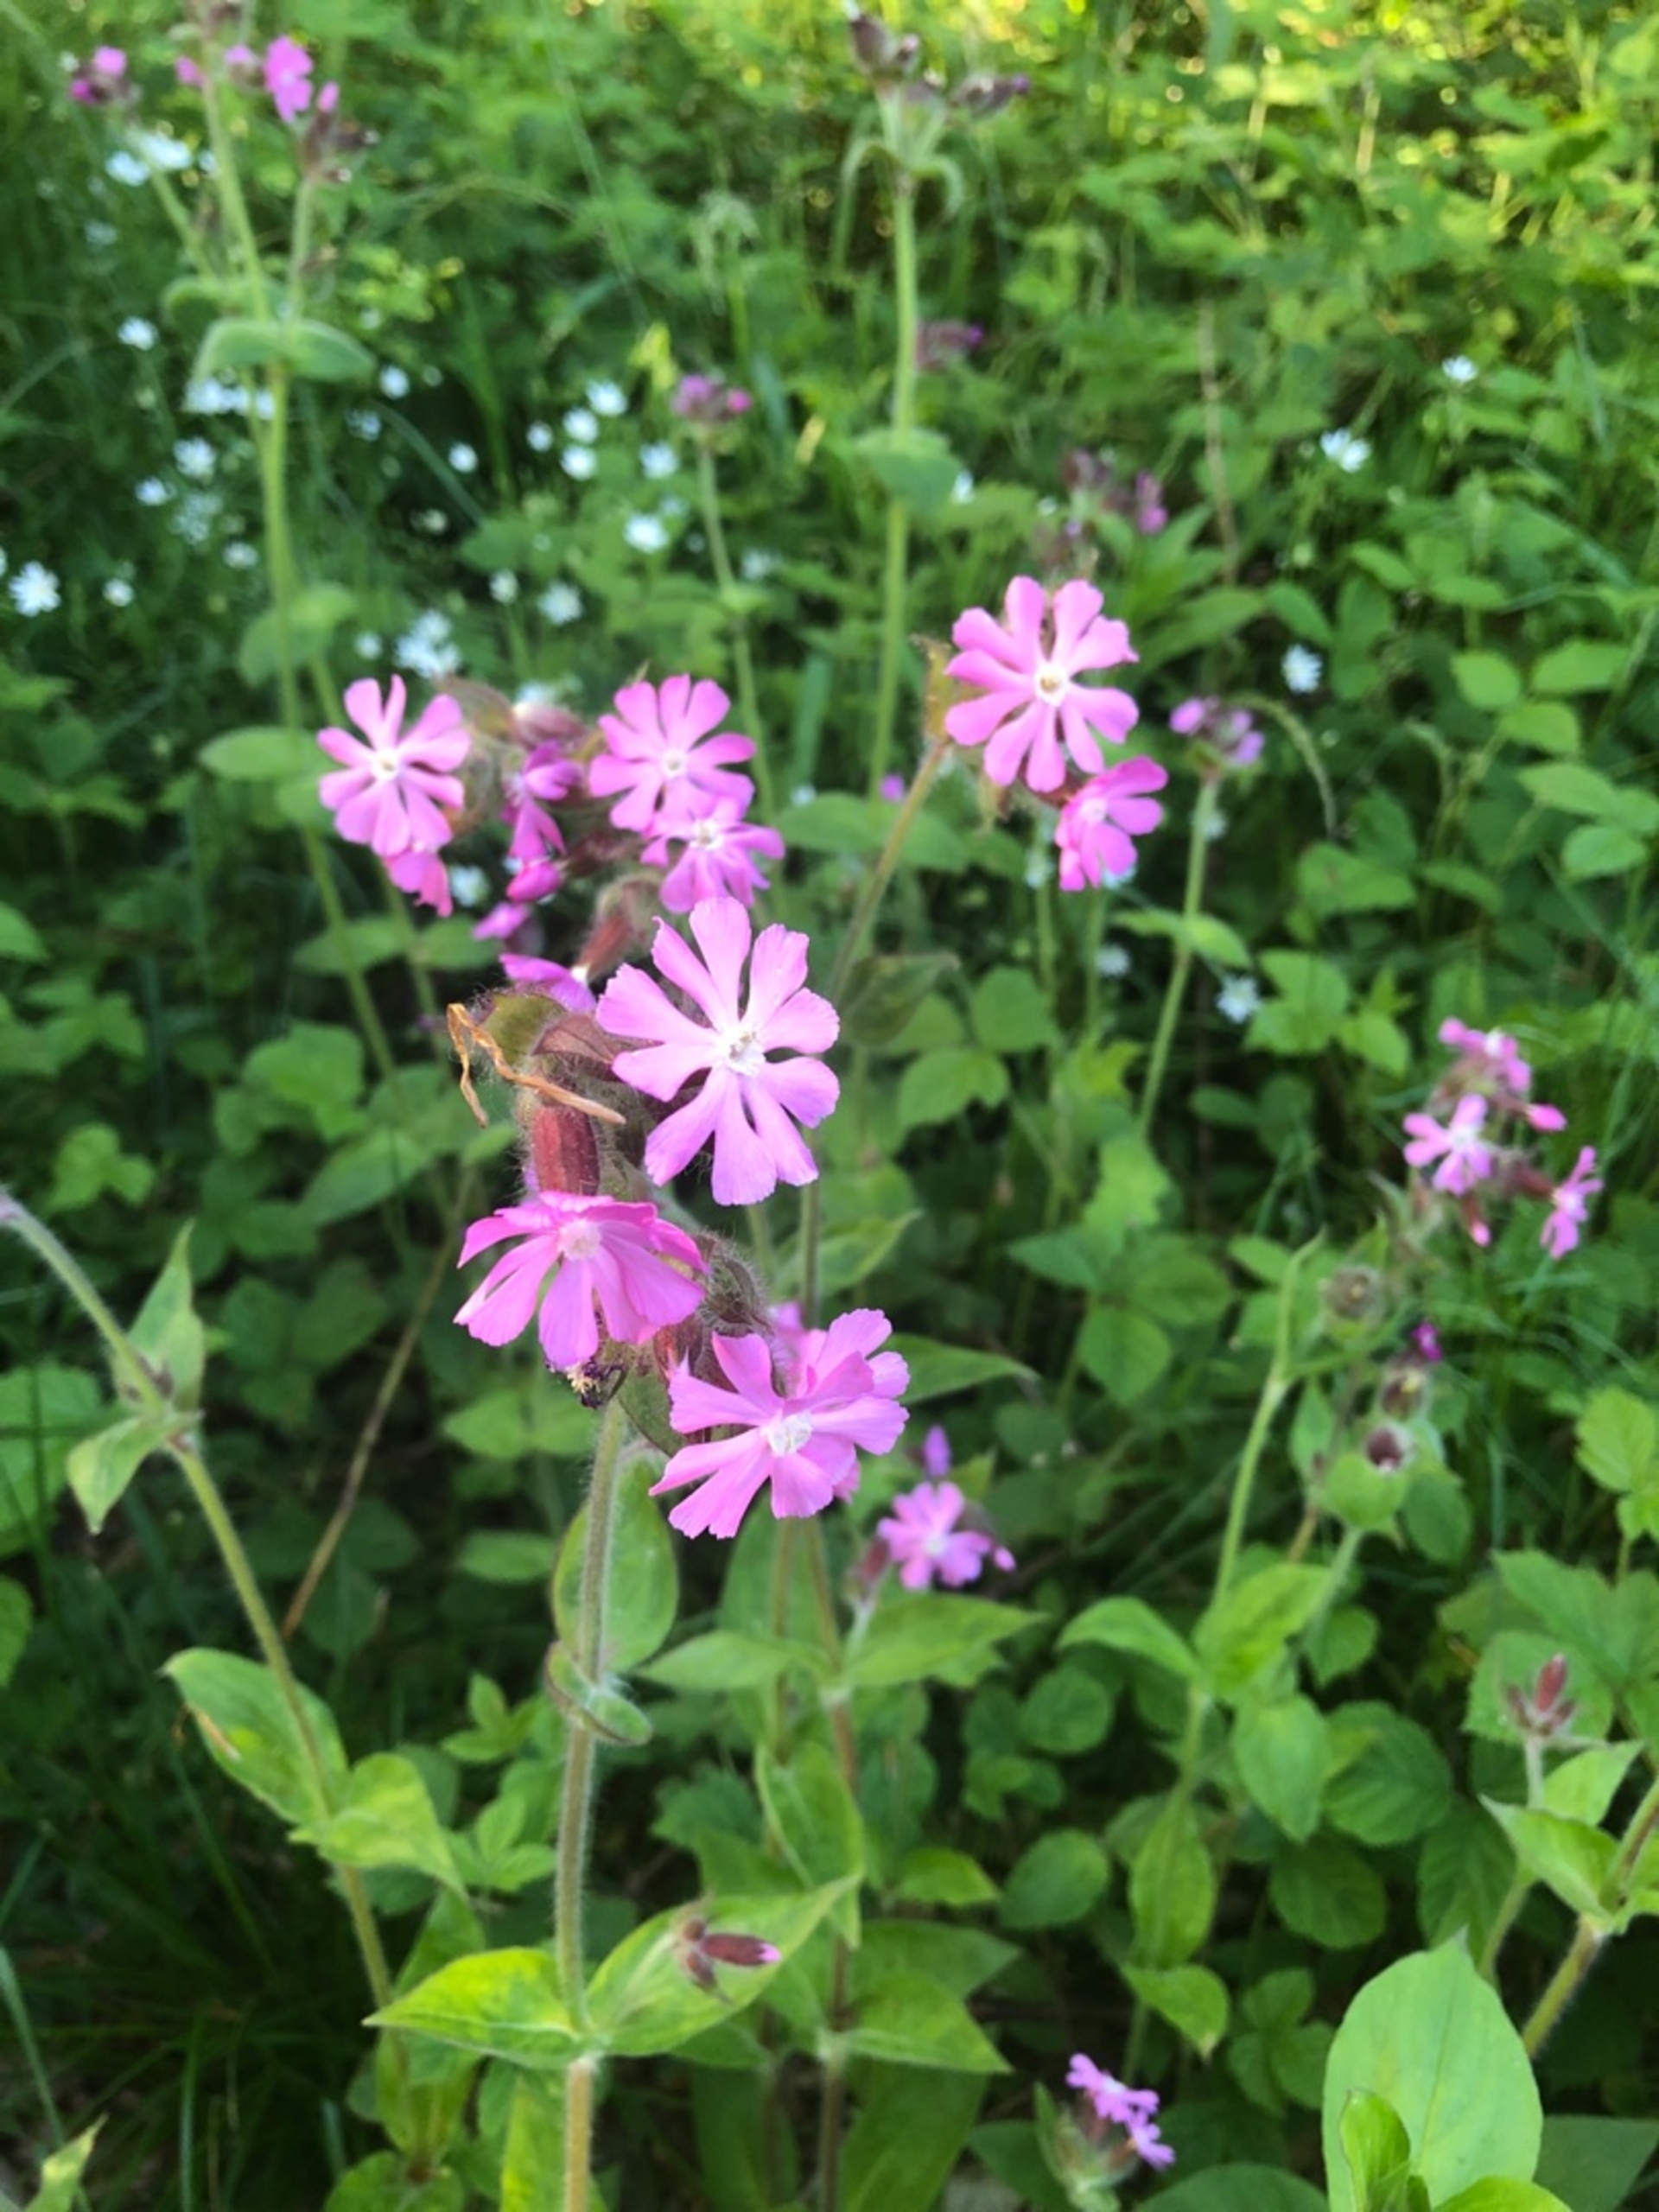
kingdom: Plantae
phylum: Tracheophyta
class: Magnoliopsida
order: Caryophyllales
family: Caryophyllaceae
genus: Silene
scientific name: Silene dioica
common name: Dagpragtstjerne
